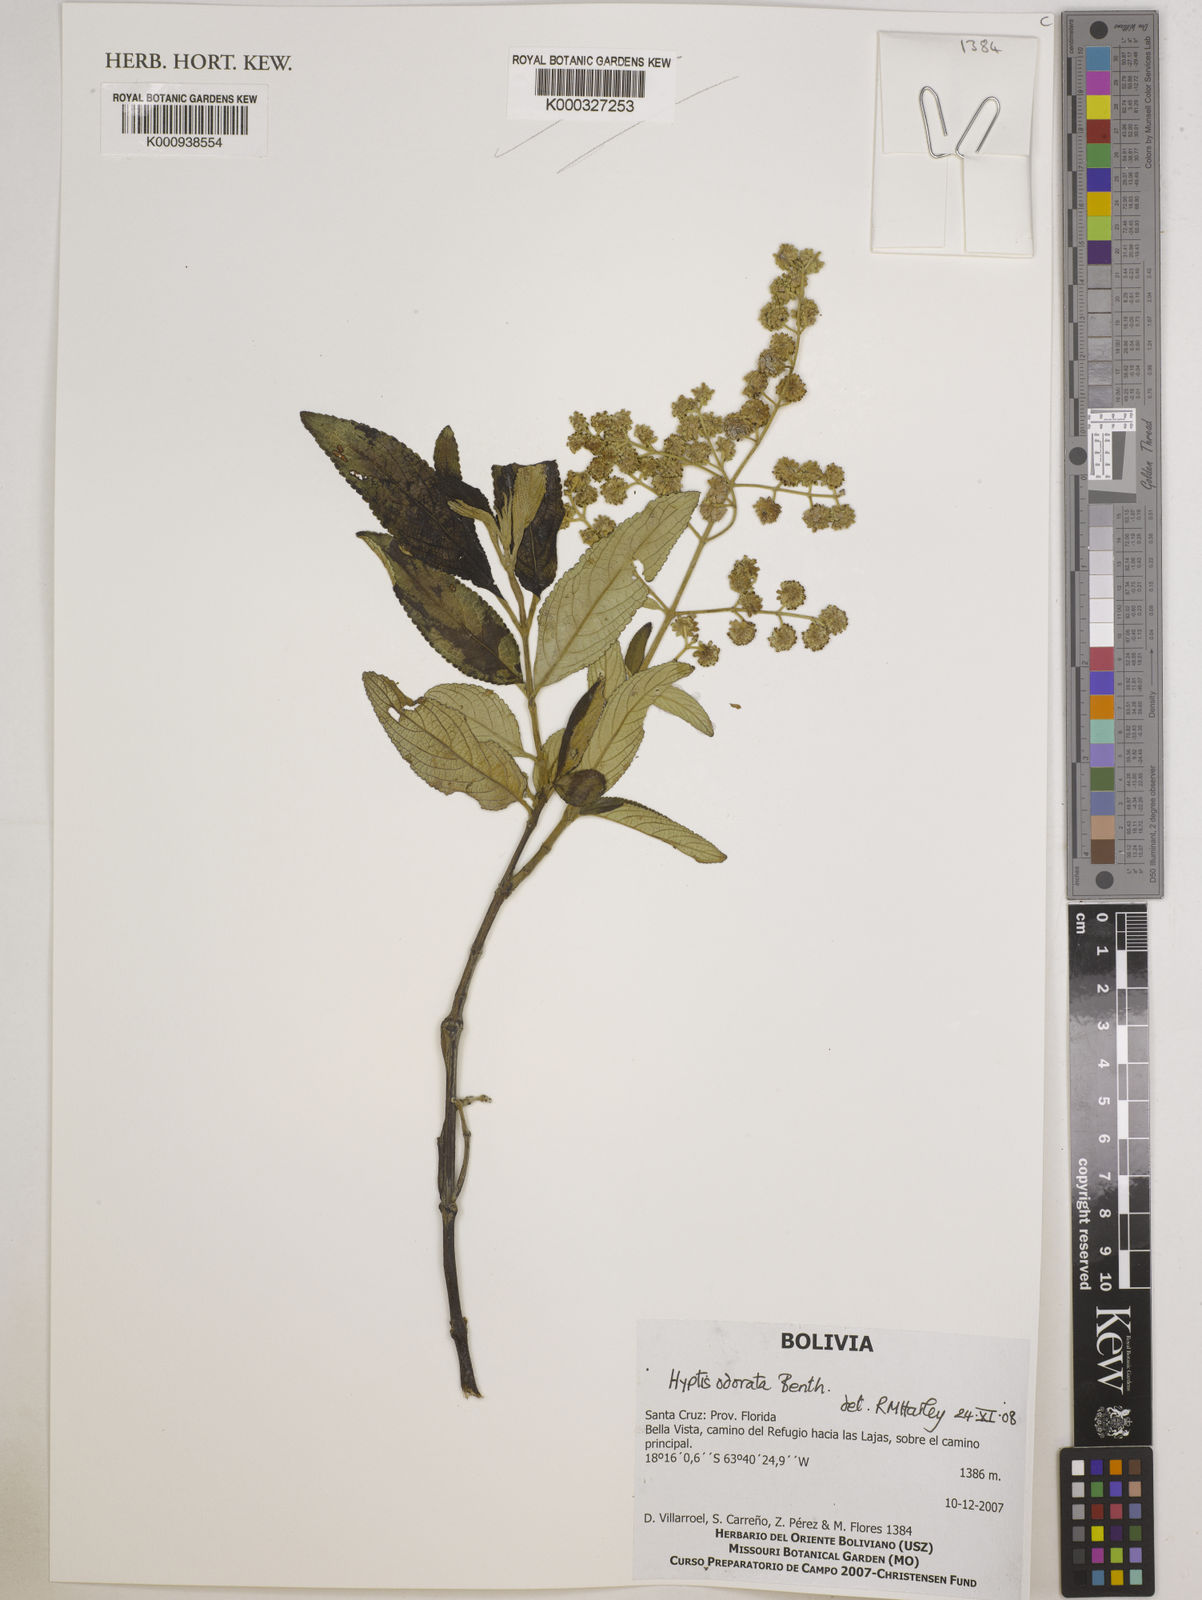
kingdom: Plantae
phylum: Tracheophyta
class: Magnoliopsida
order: Lamiales
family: Lamiaceae
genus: Hyptis
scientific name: Hyptis odorata
